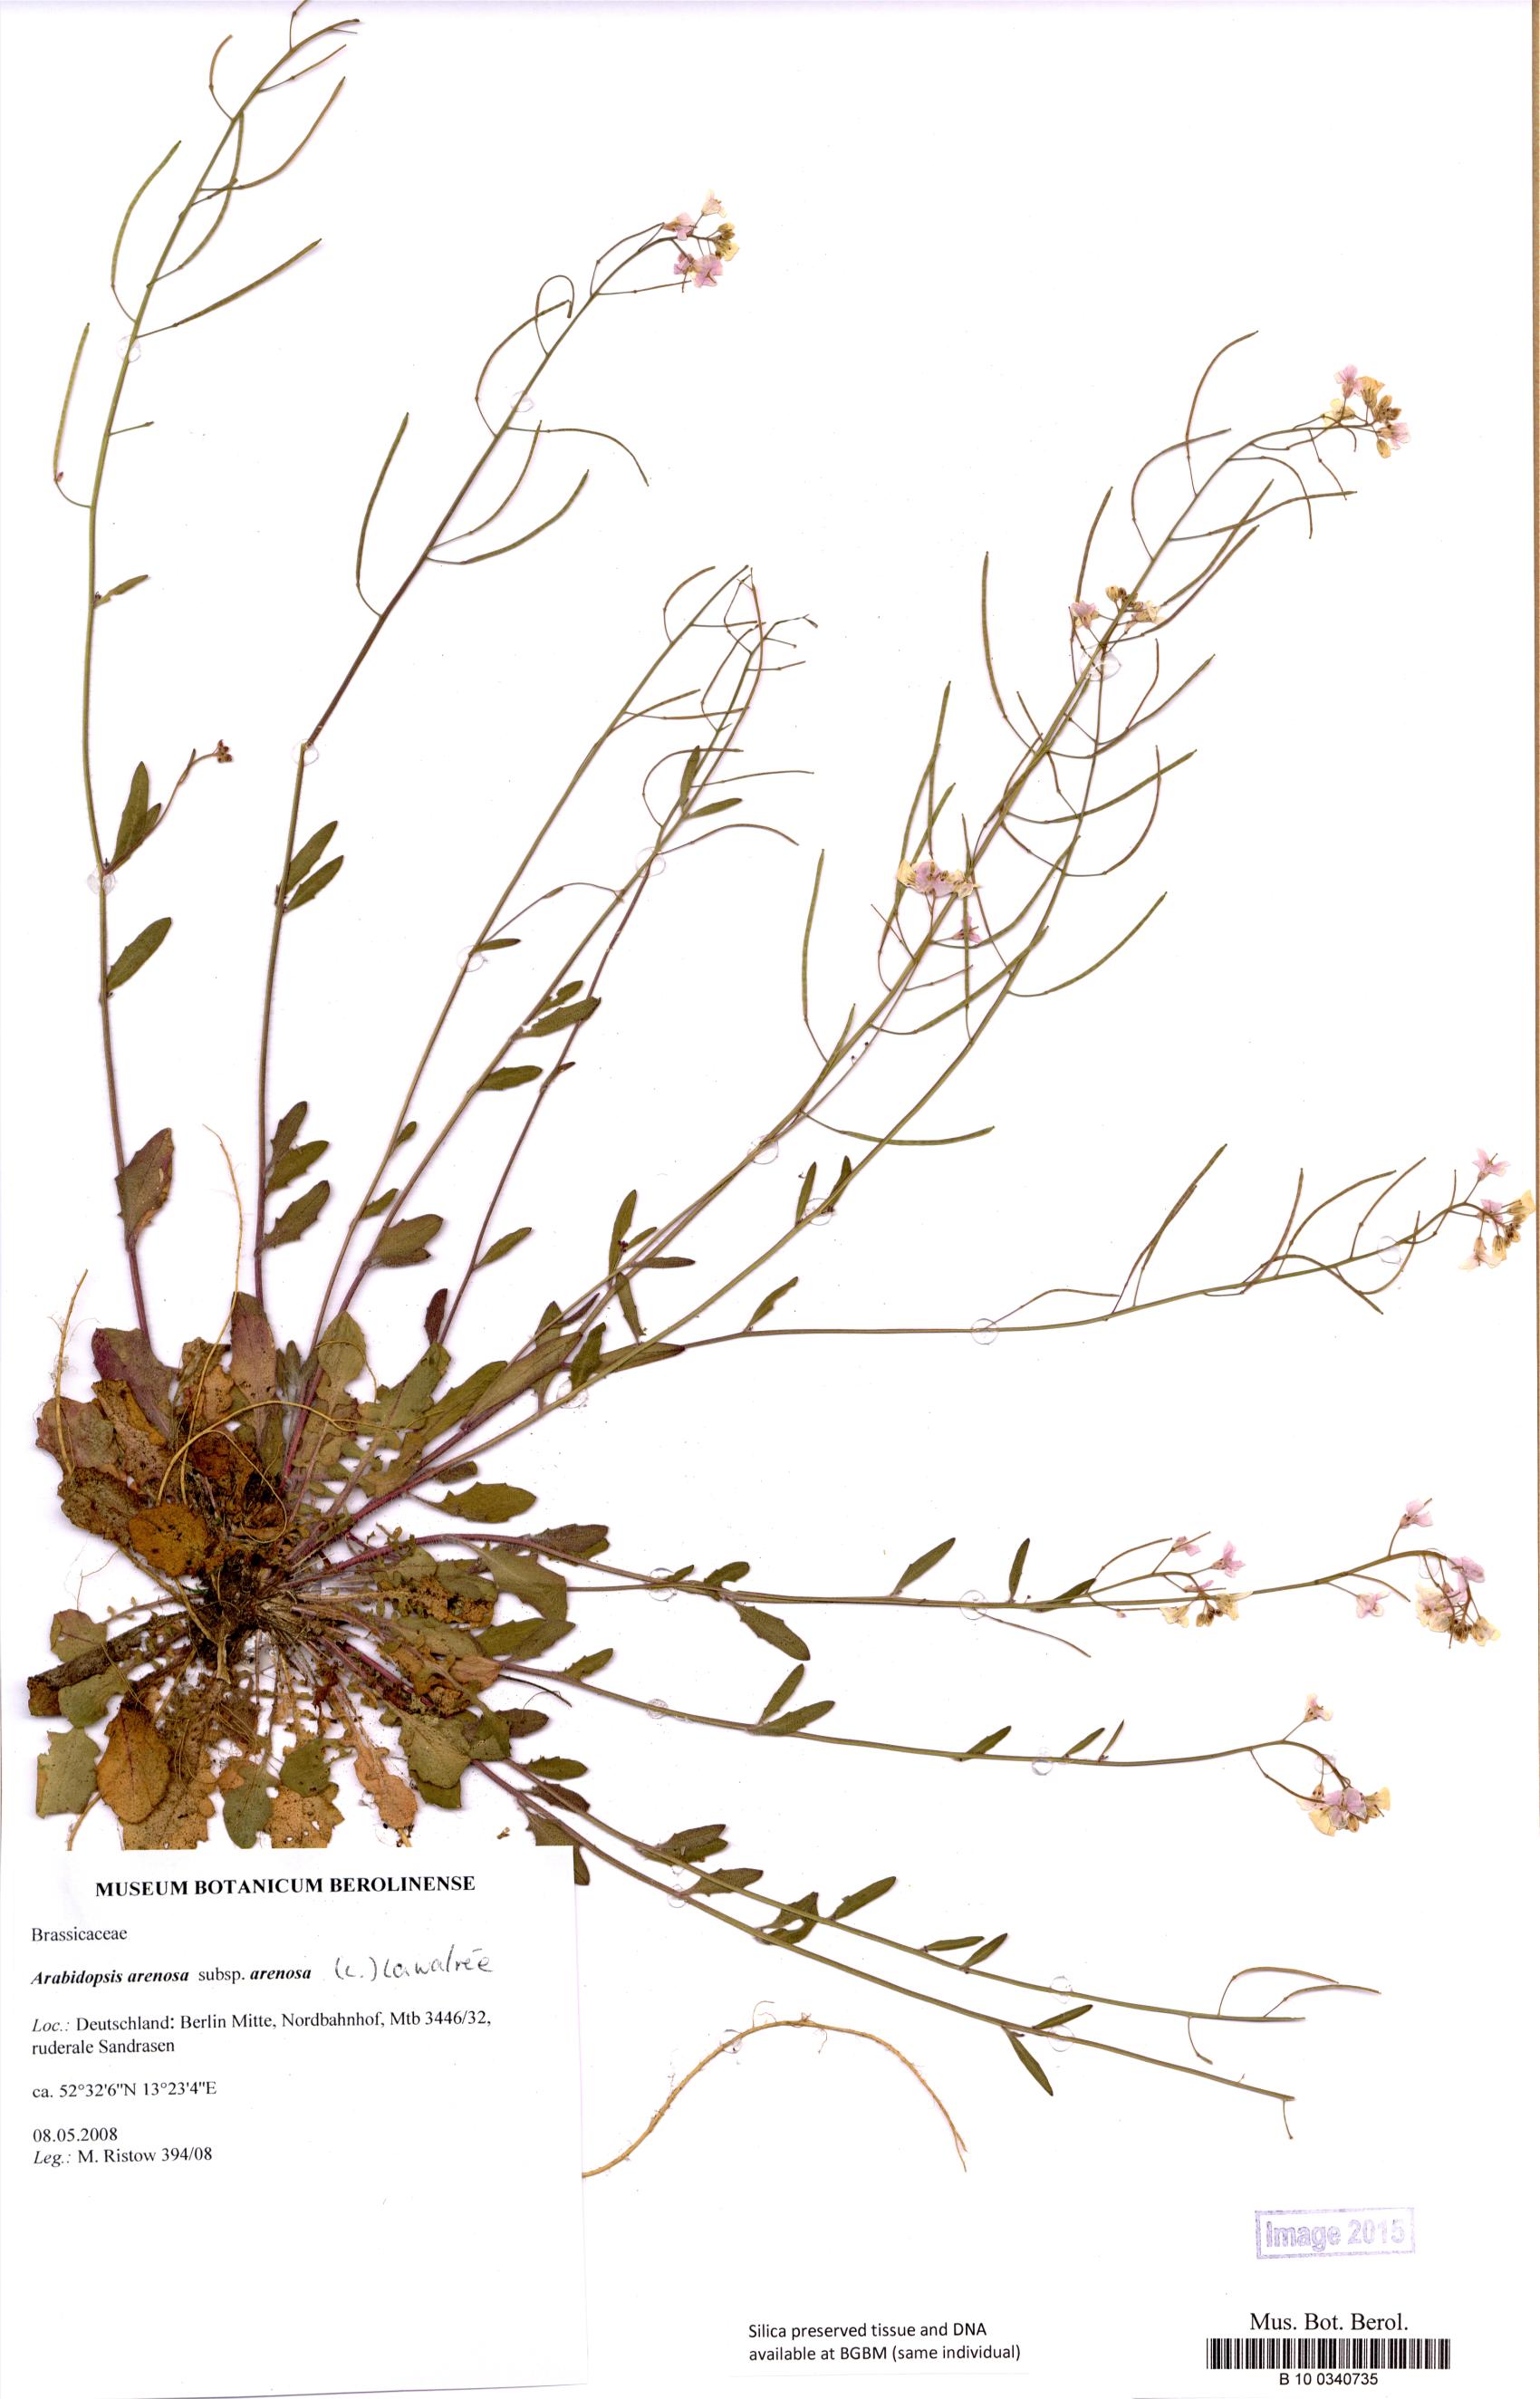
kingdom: Plantae
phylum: Tracheophyta
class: Magnoliopsida
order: Brassicales
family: Brassicaceae
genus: Arabidopsis
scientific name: Arabidopsis arenosa
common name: Sand rock-cress
